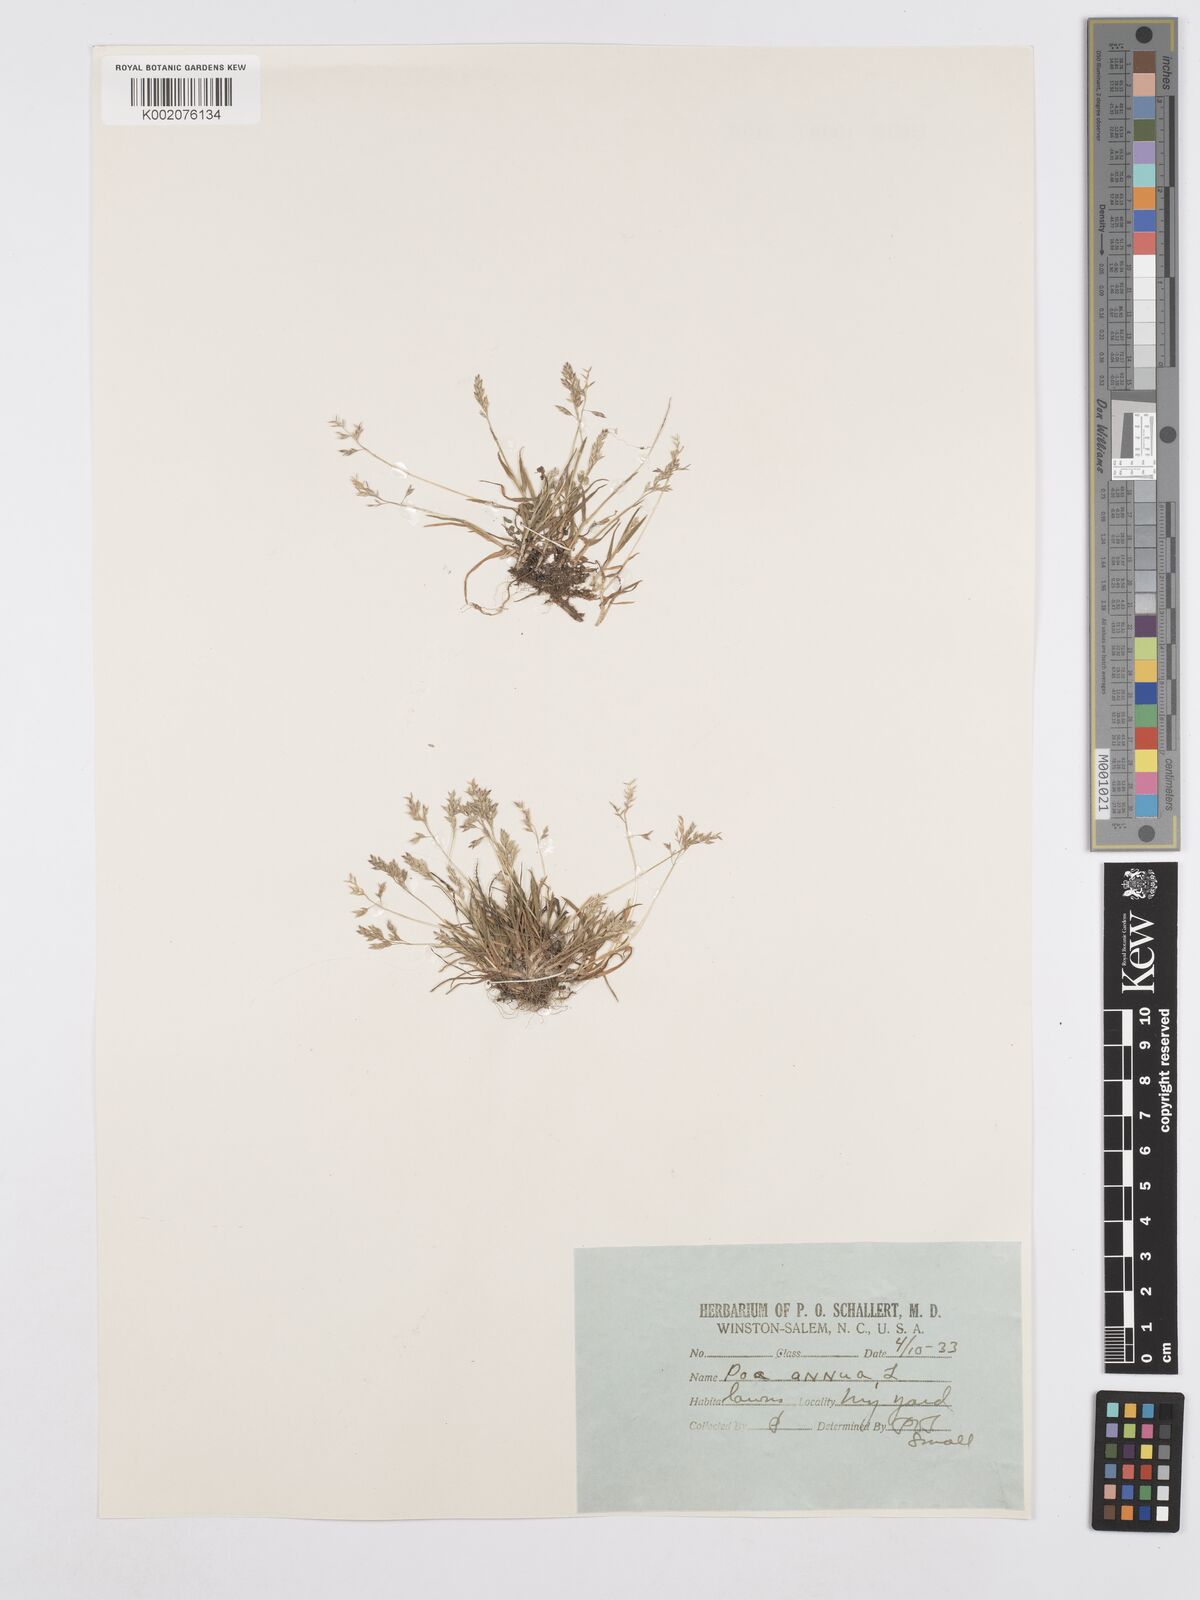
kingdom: Plantae
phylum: Tracheophyta
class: Liliopsida
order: Poales
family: Poaceae
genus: Poa
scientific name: Poa annua
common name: Annual bluegrass
